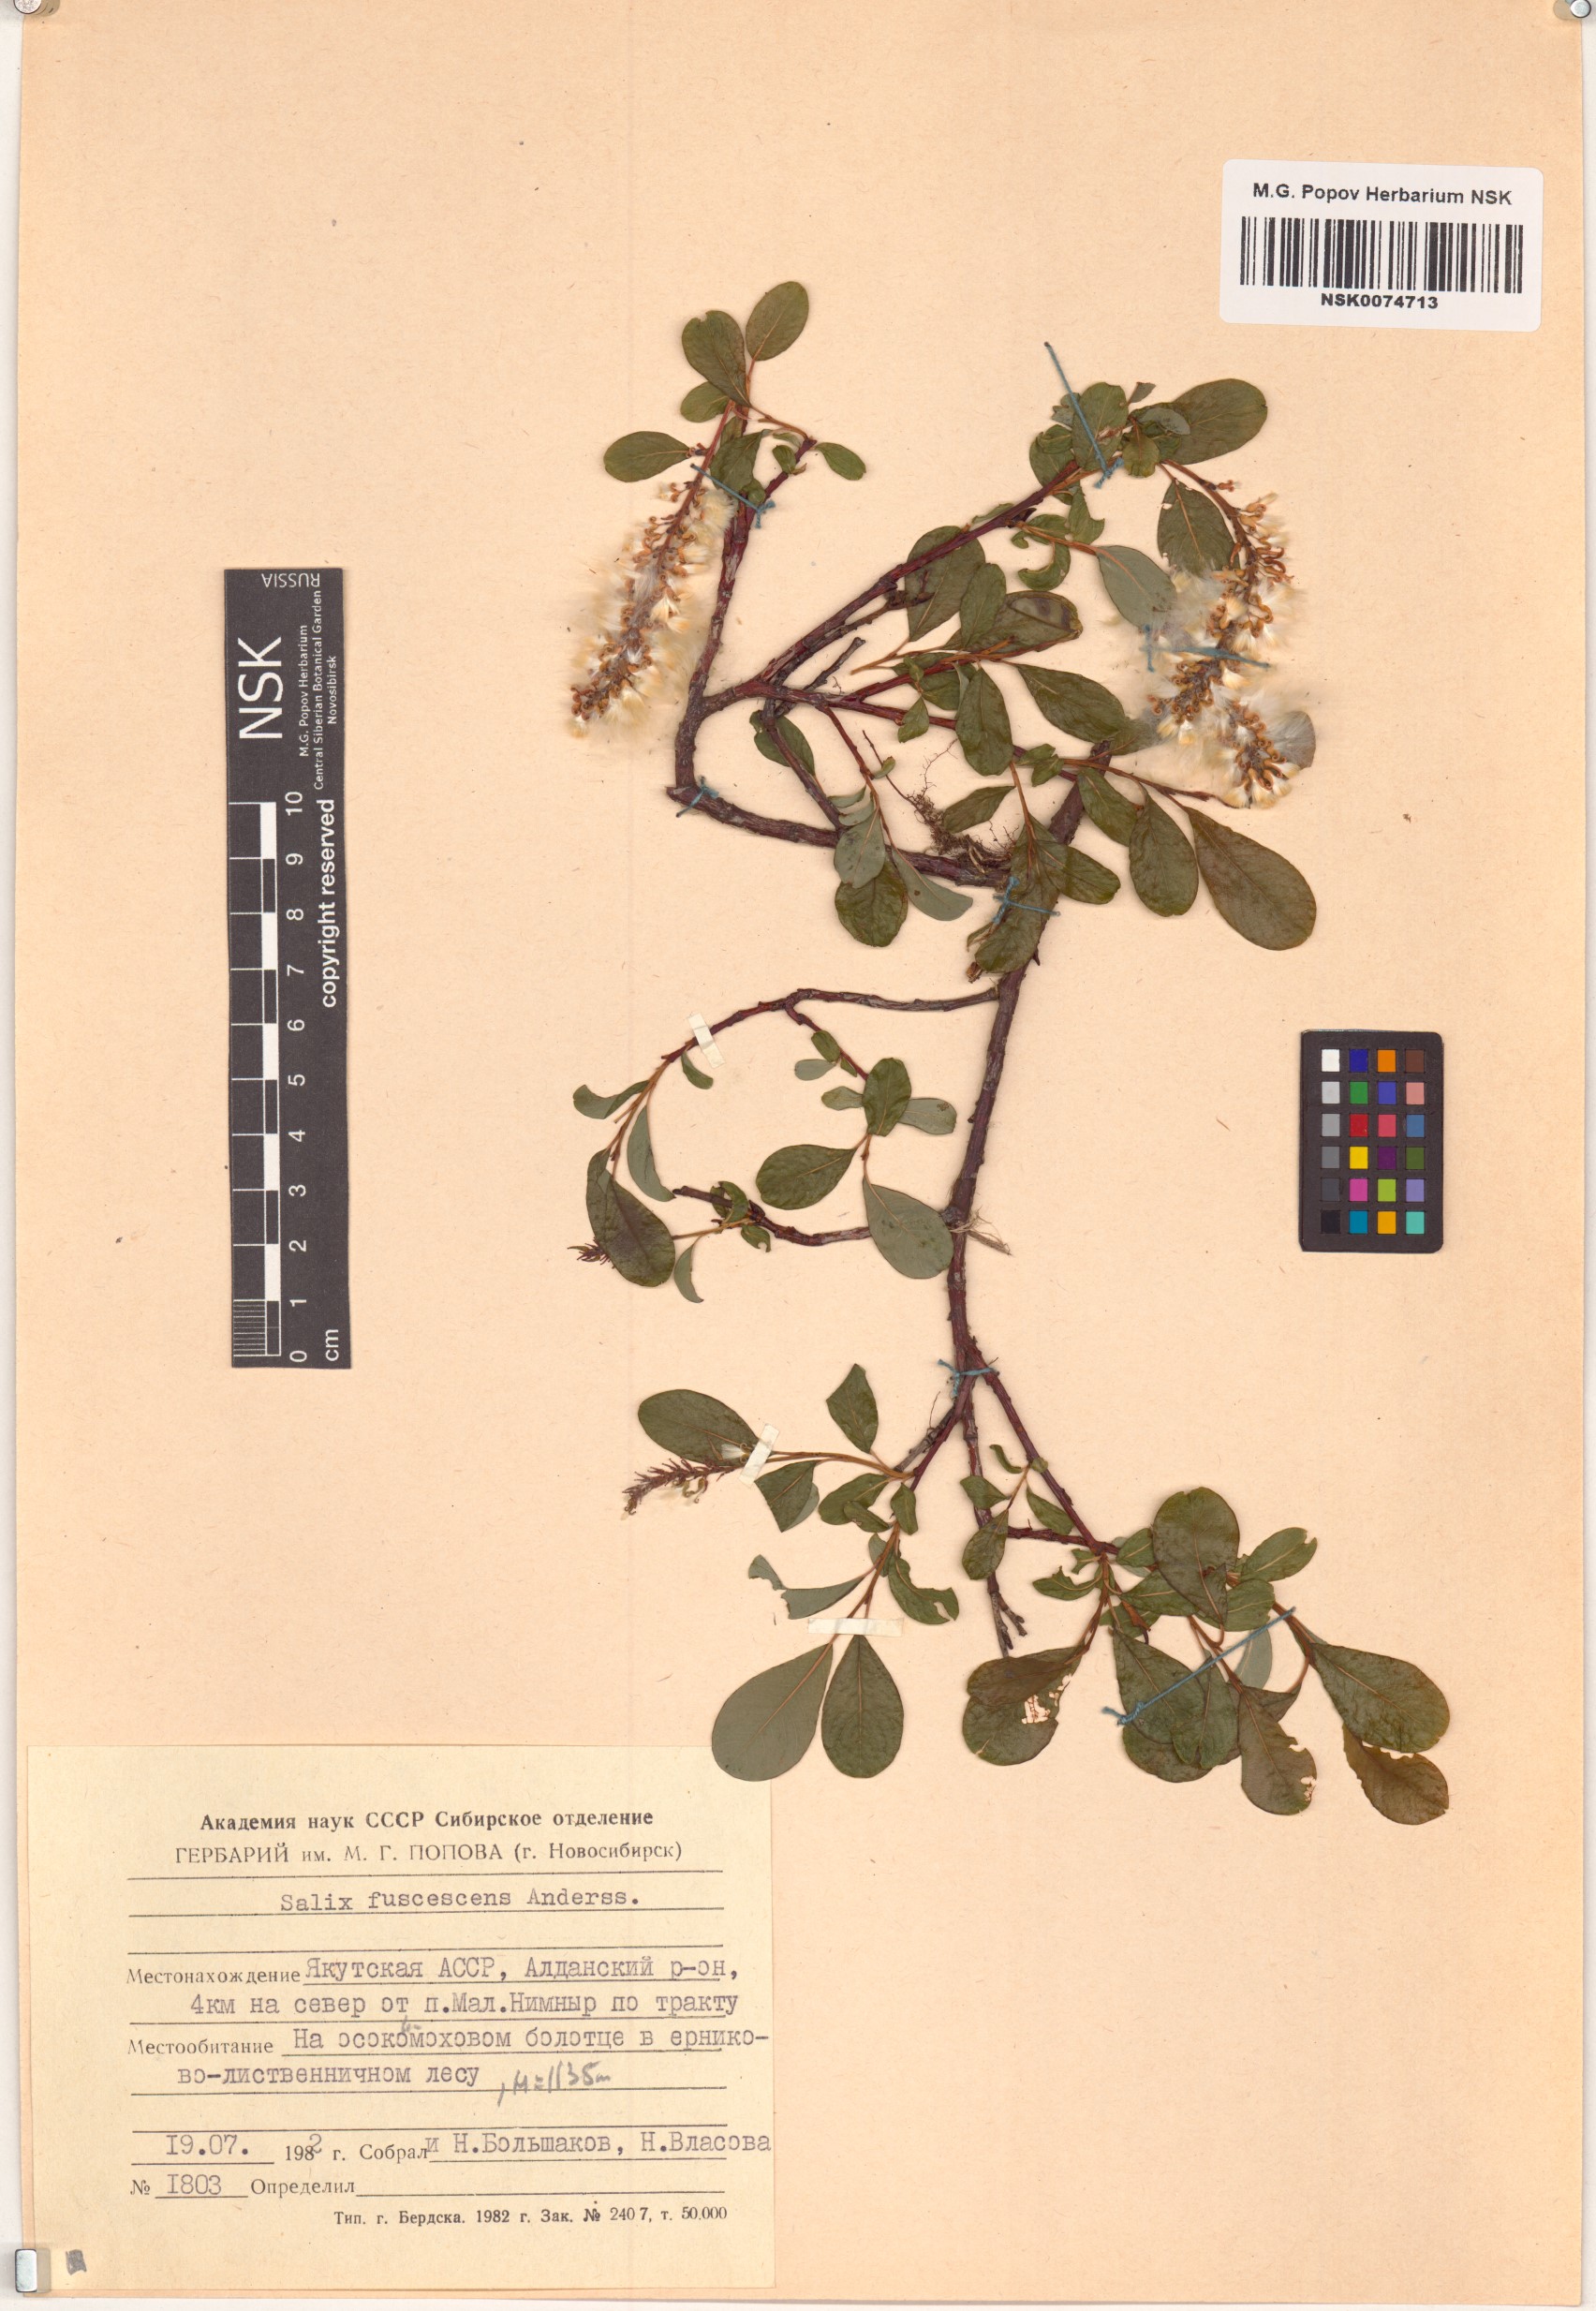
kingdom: Plantae
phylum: Tracheophyta
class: Magnoliopsida
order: Malpighiales
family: Salicaceae
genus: Salix
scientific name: Salix fuscescens
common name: Brownish willow
